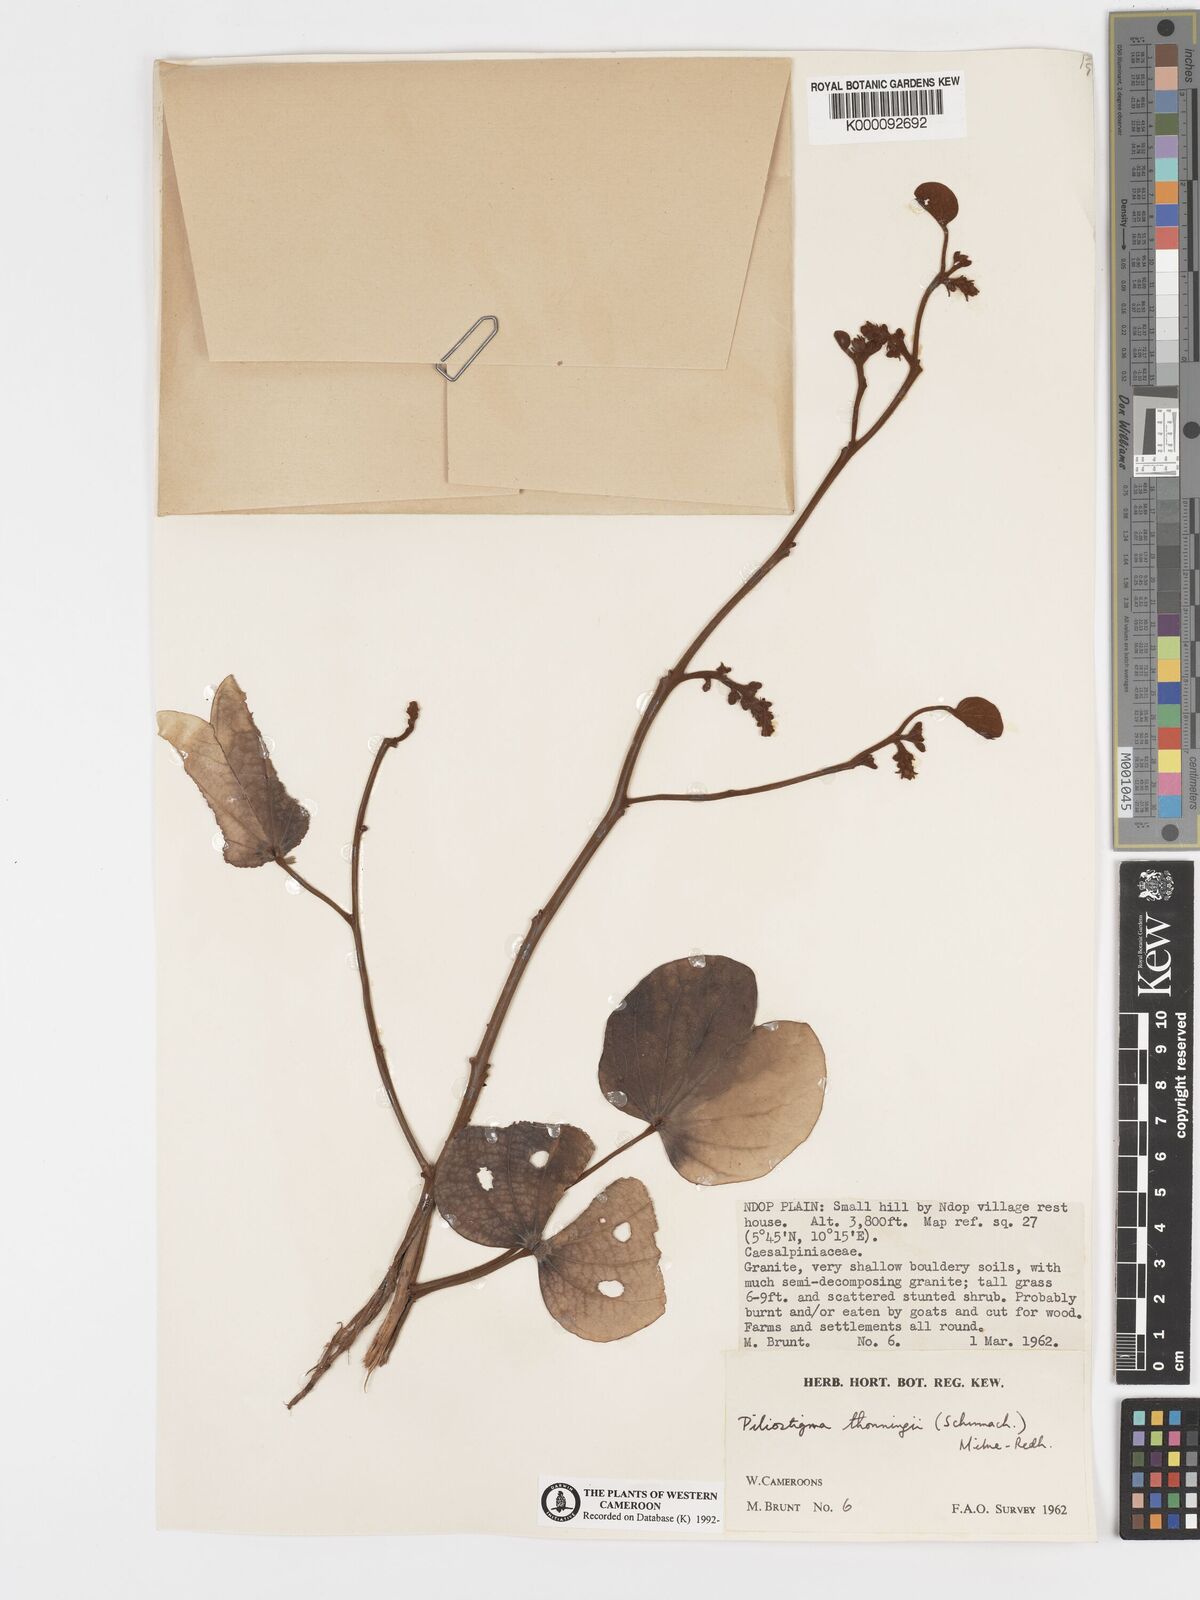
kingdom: Plantae
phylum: Tracheophyta
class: Magnoliopsida
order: Fabales
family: Fabaceae
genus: Piliostigma
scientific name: Piliostigma thonningii
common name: Kao
